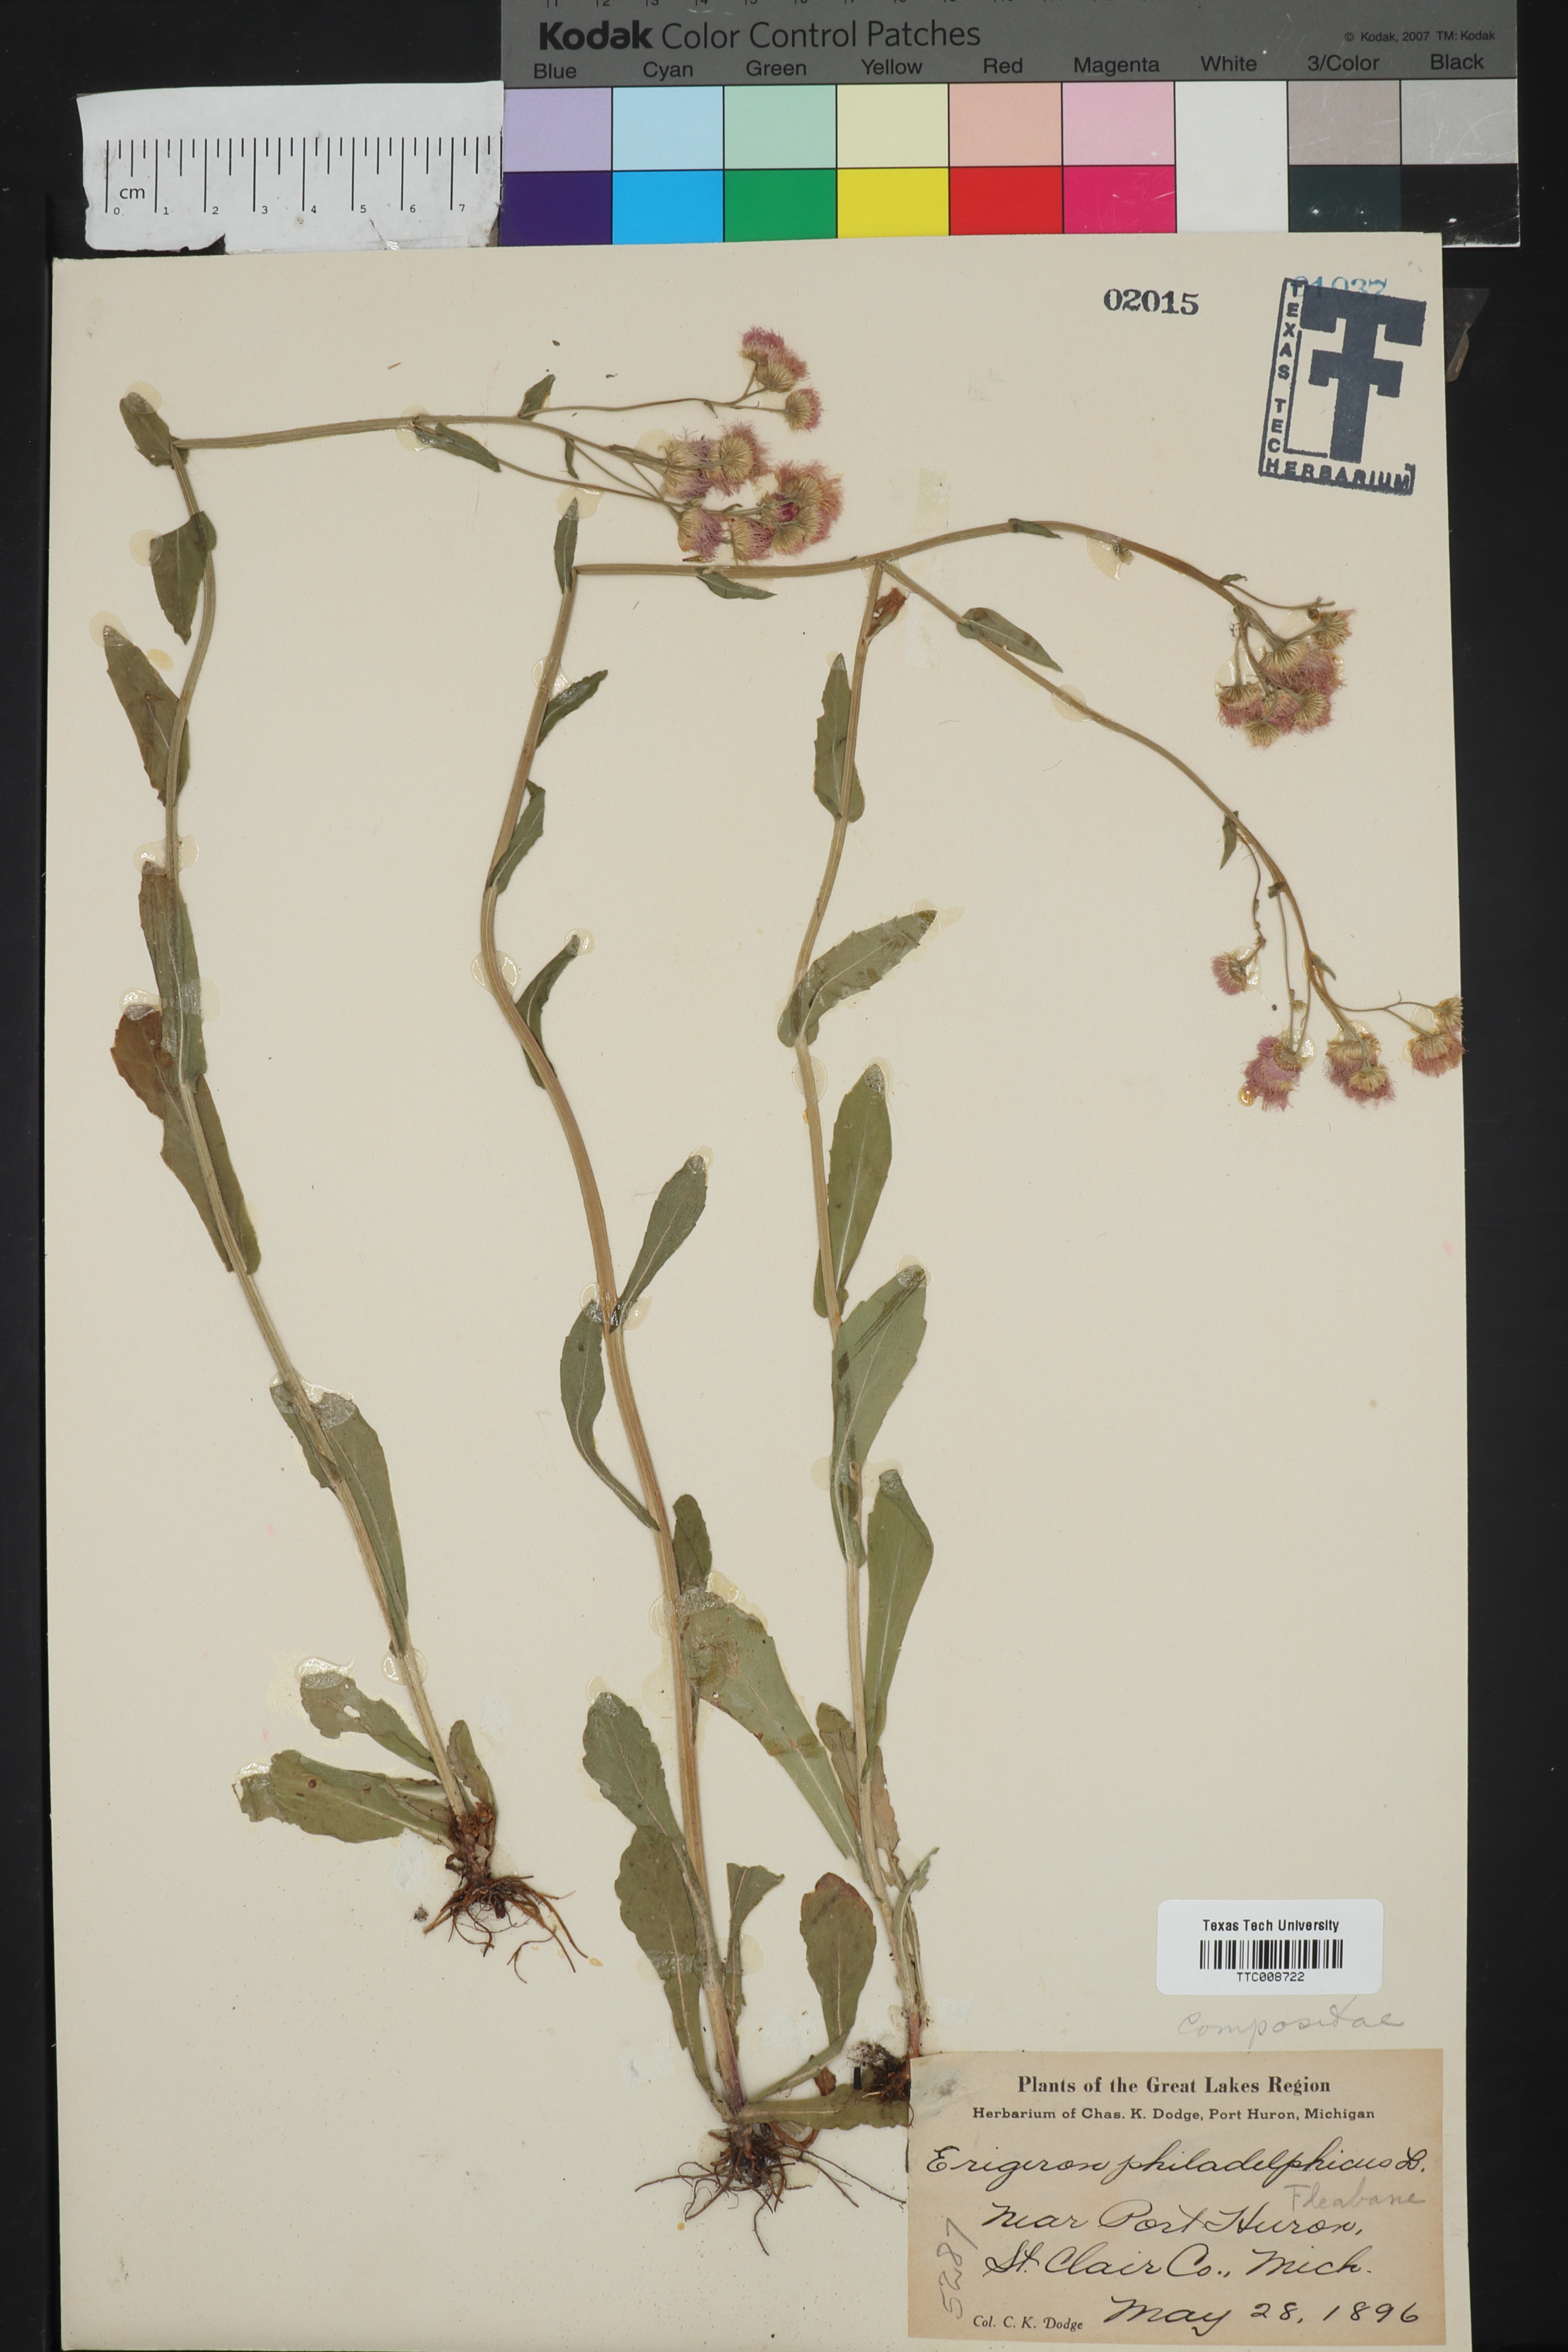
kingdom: Plantae
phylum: Tracheophyta
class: Magnoliopsida
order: Asterales
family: Asteraceae
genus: Erigeron
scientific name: Erigeron philadelphicus
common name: Robin's-plantain
